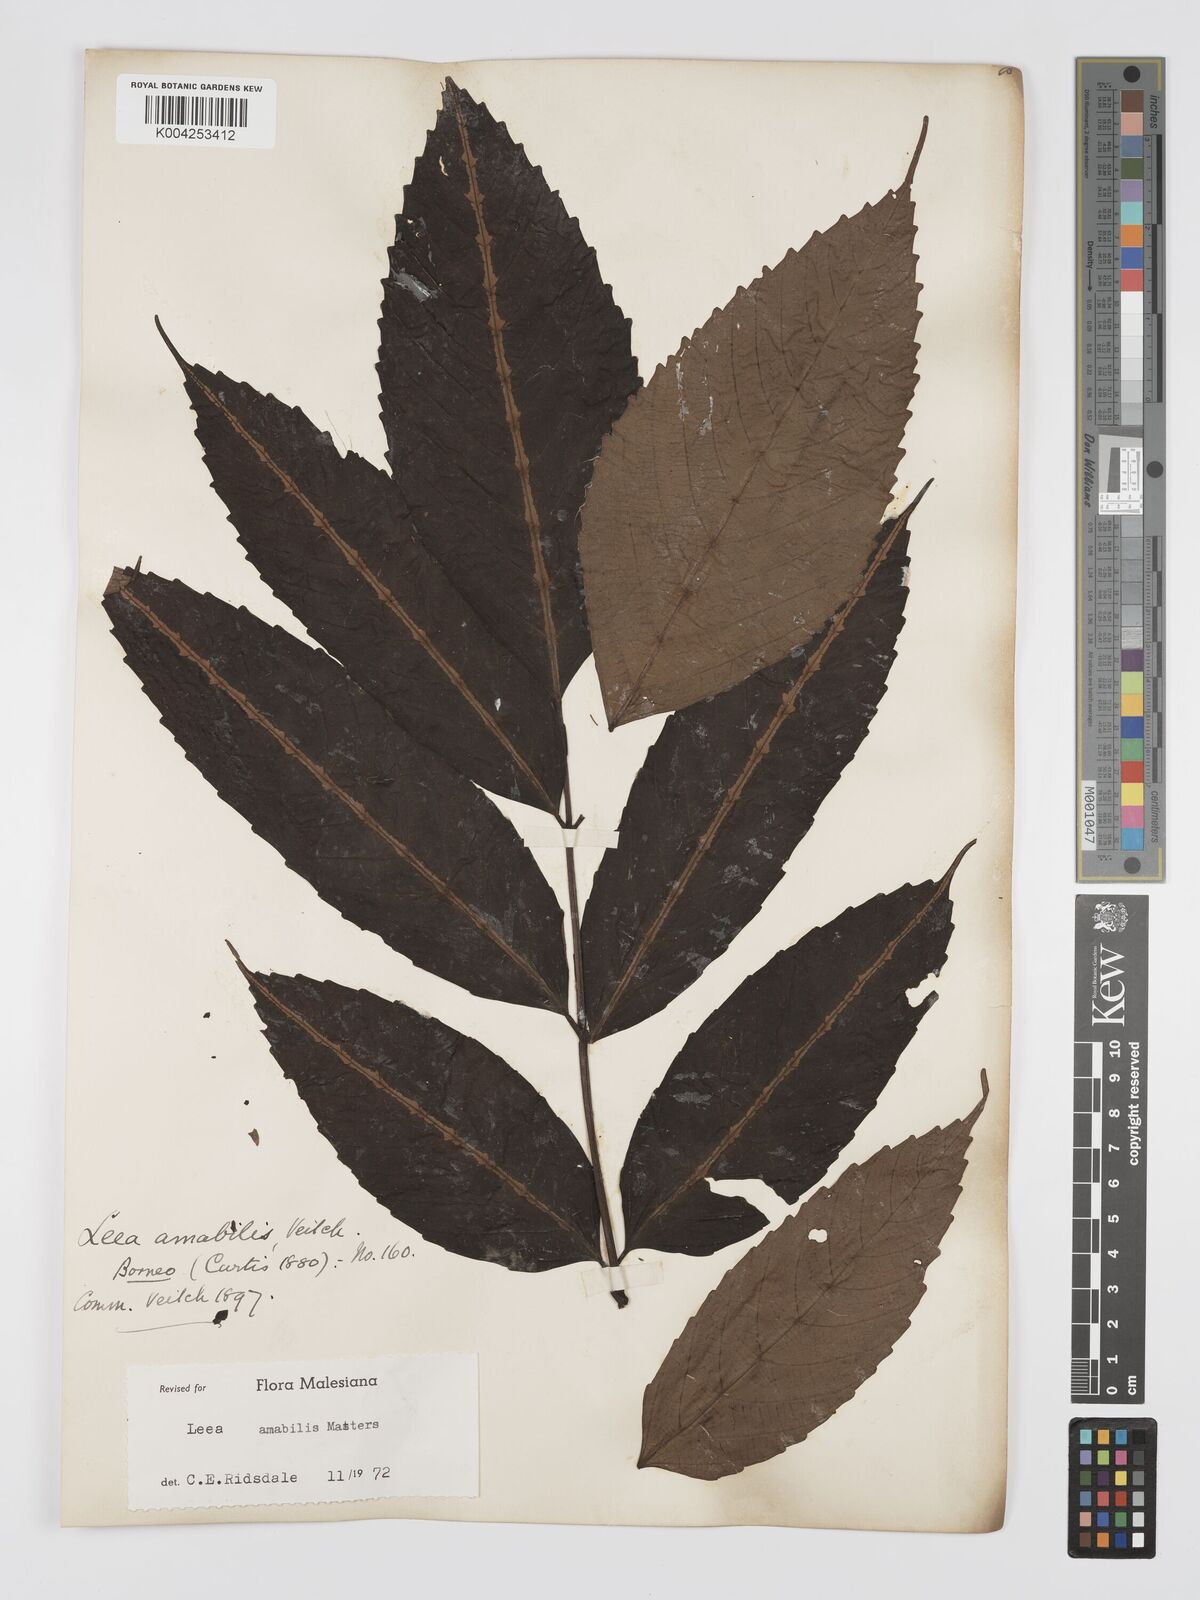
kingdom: Plantae
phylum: Tracheophyta
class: Magnoliopsida
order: Vitales
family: Vitaceae
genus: Leea
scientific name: Leea amabilis
